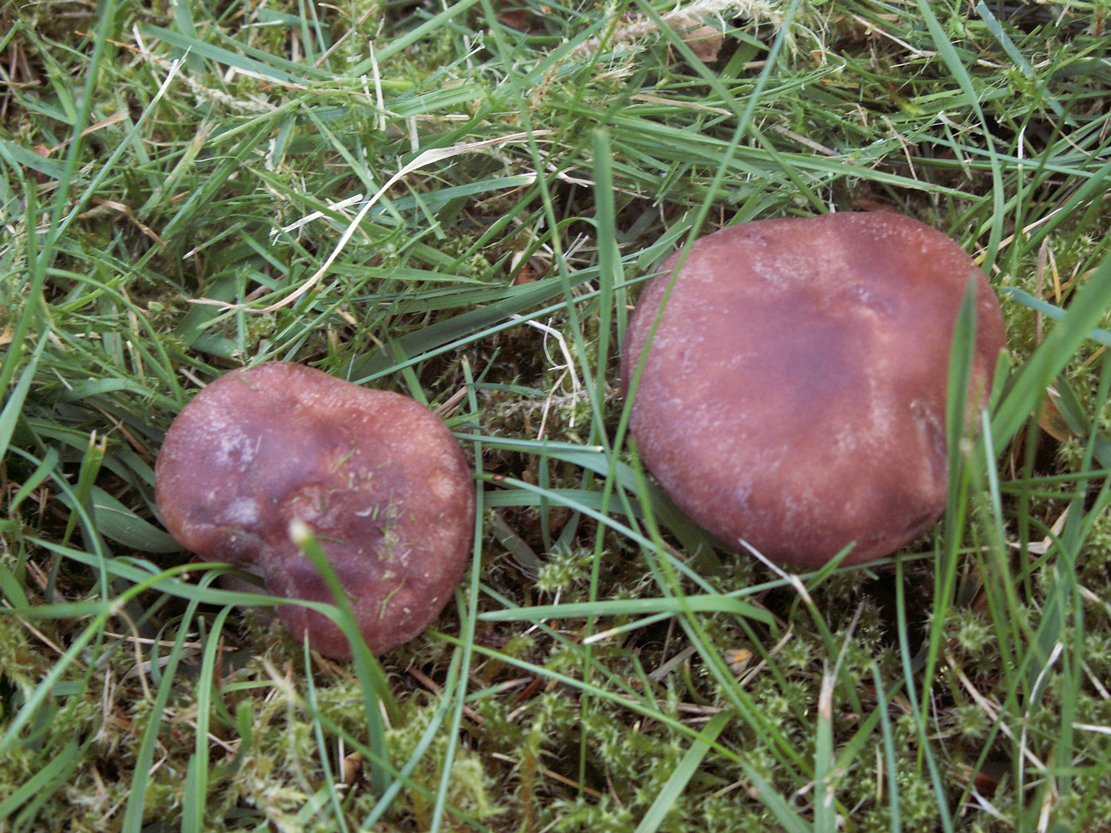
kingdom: Fungi
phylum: Basidiomycota
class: Agaricomycetes
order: Agaricales
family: Lyophyllaceae
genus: Gerhardtia
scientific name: Gerhardtia borealis
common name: rosabrun fagerhat
